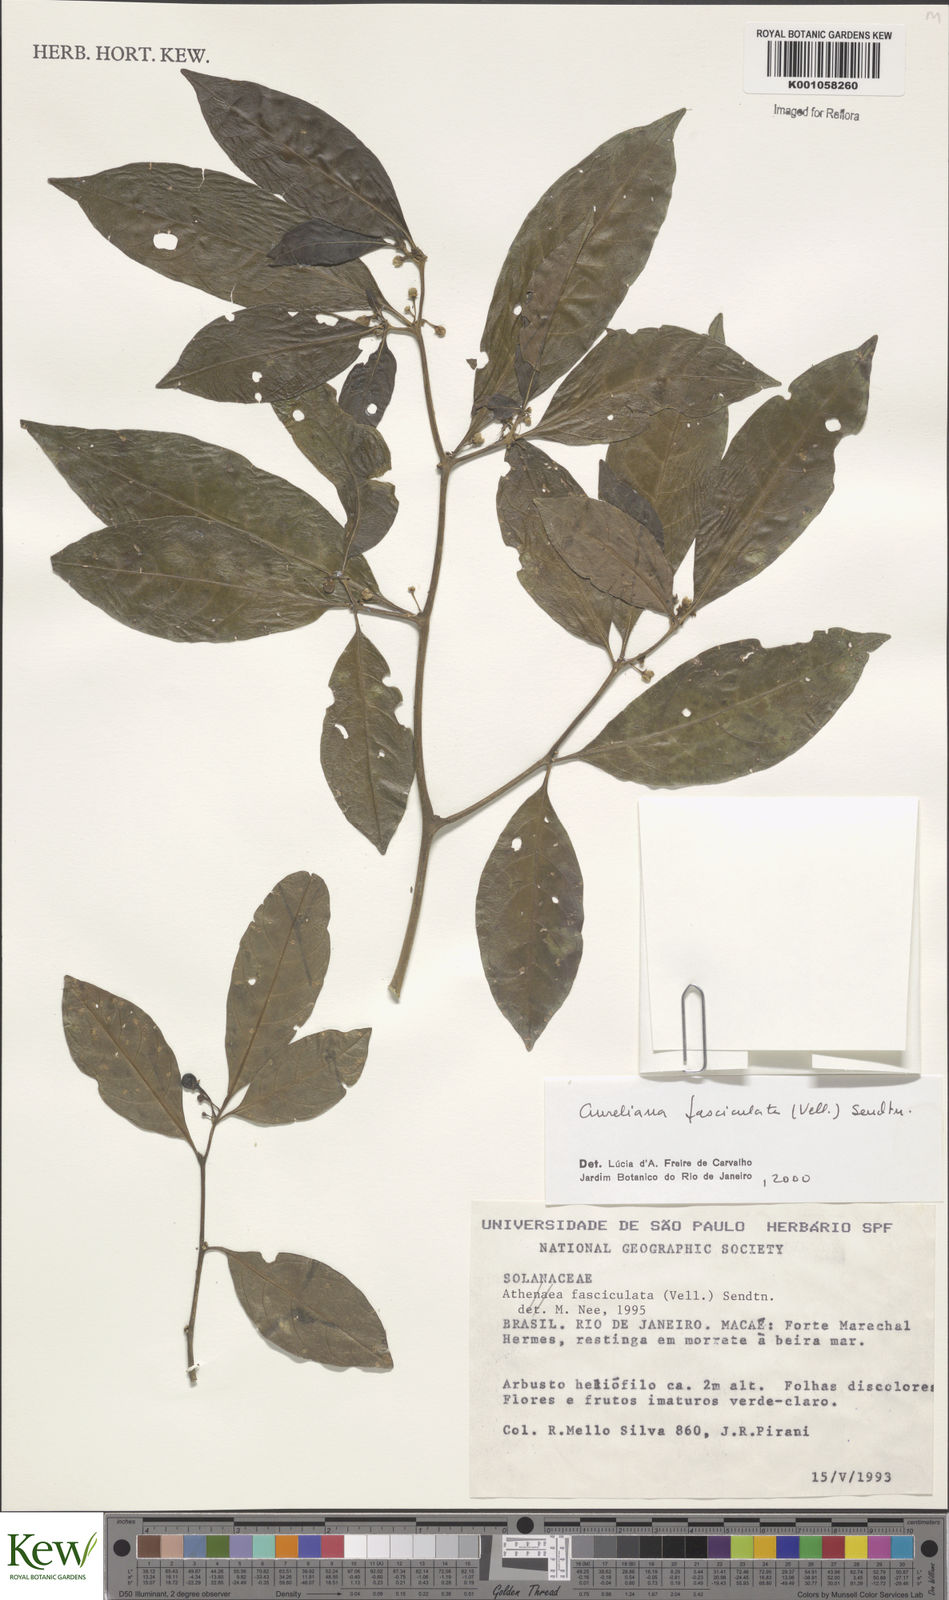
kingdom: Plantae
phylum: Tracheophyta
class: Magnoliopsida
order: Solanales
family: Solanaceae
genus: Athenaea
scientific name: Athenaea
